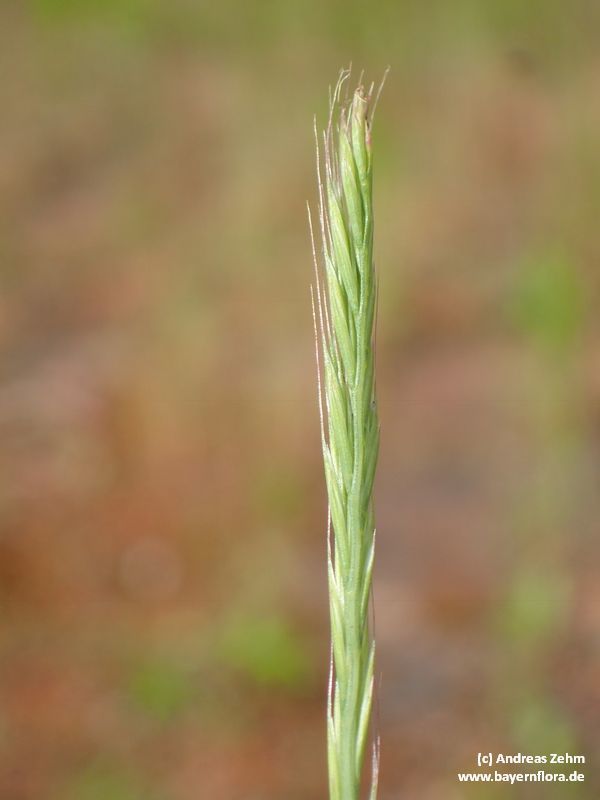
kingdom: Plantae
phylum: Tracheophyta
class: Liliopsida
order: Poales
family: Poaceae
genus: Festuca
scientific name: Festuca myuros
